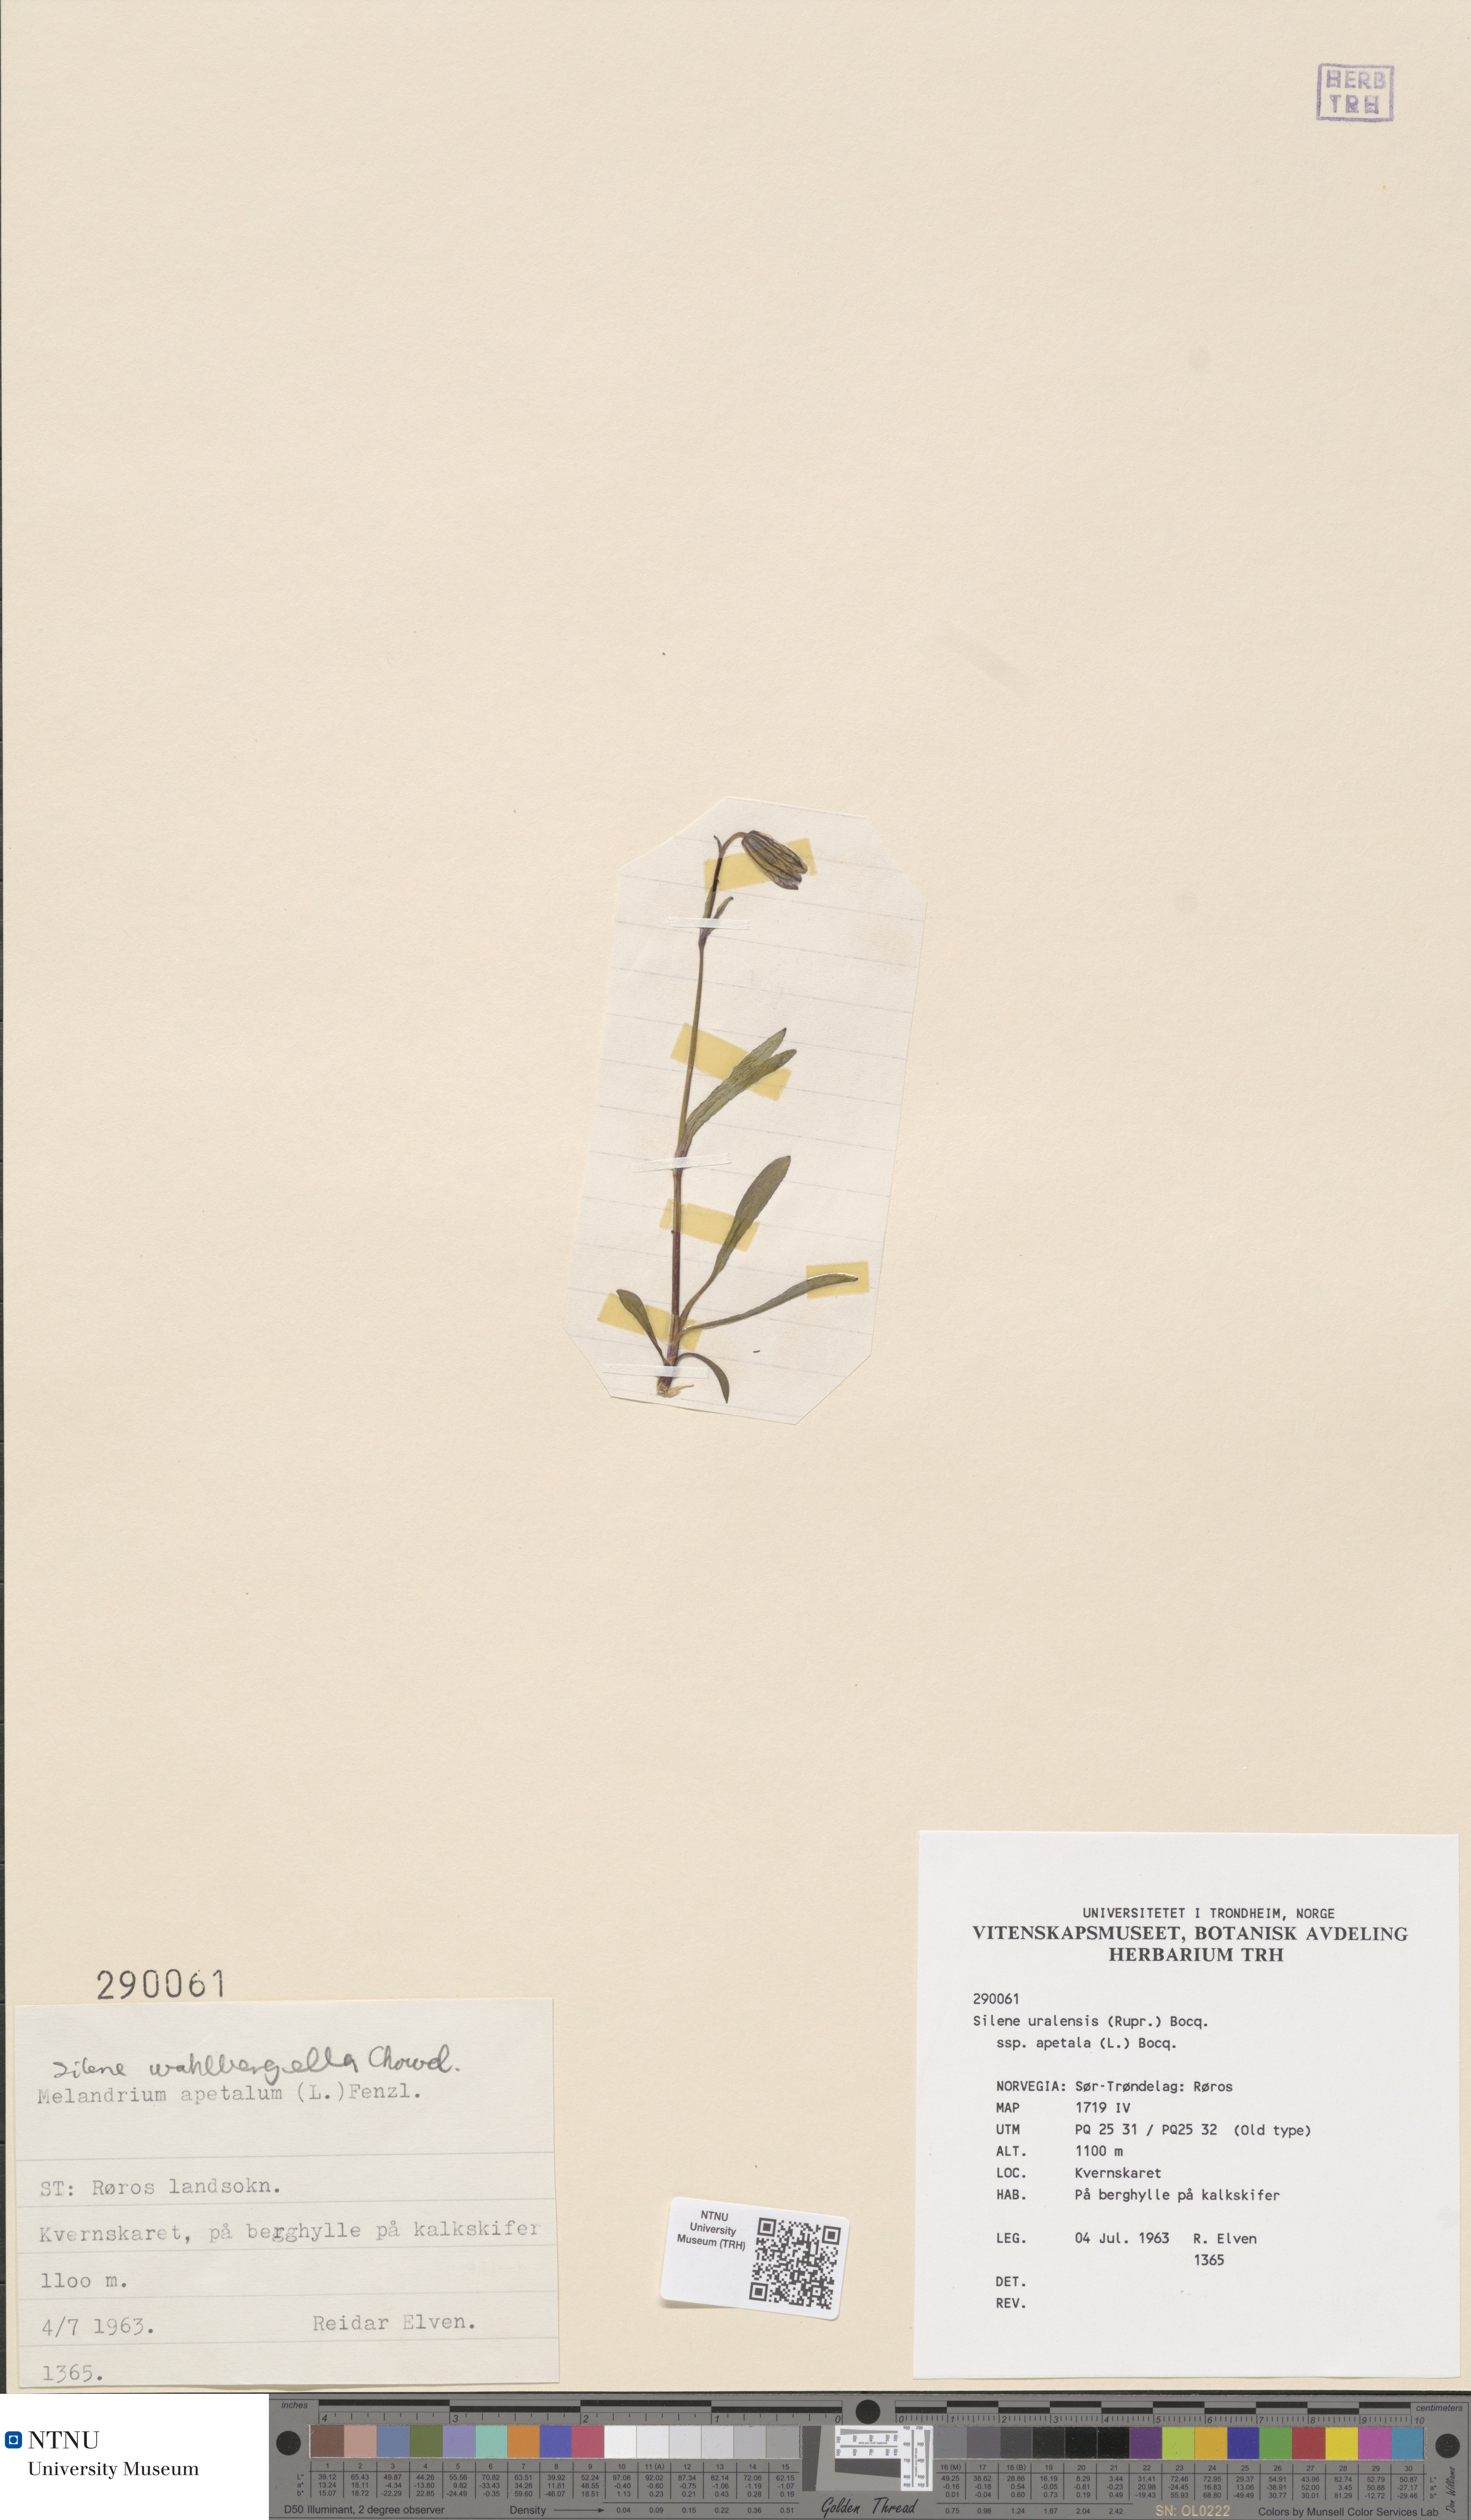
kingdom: Plantae
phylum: Tracheophyta
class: Magnoliopsida
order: Caryophyllales
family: Caryophyllaceae
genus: Silene
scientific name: Silene wahlbergella
